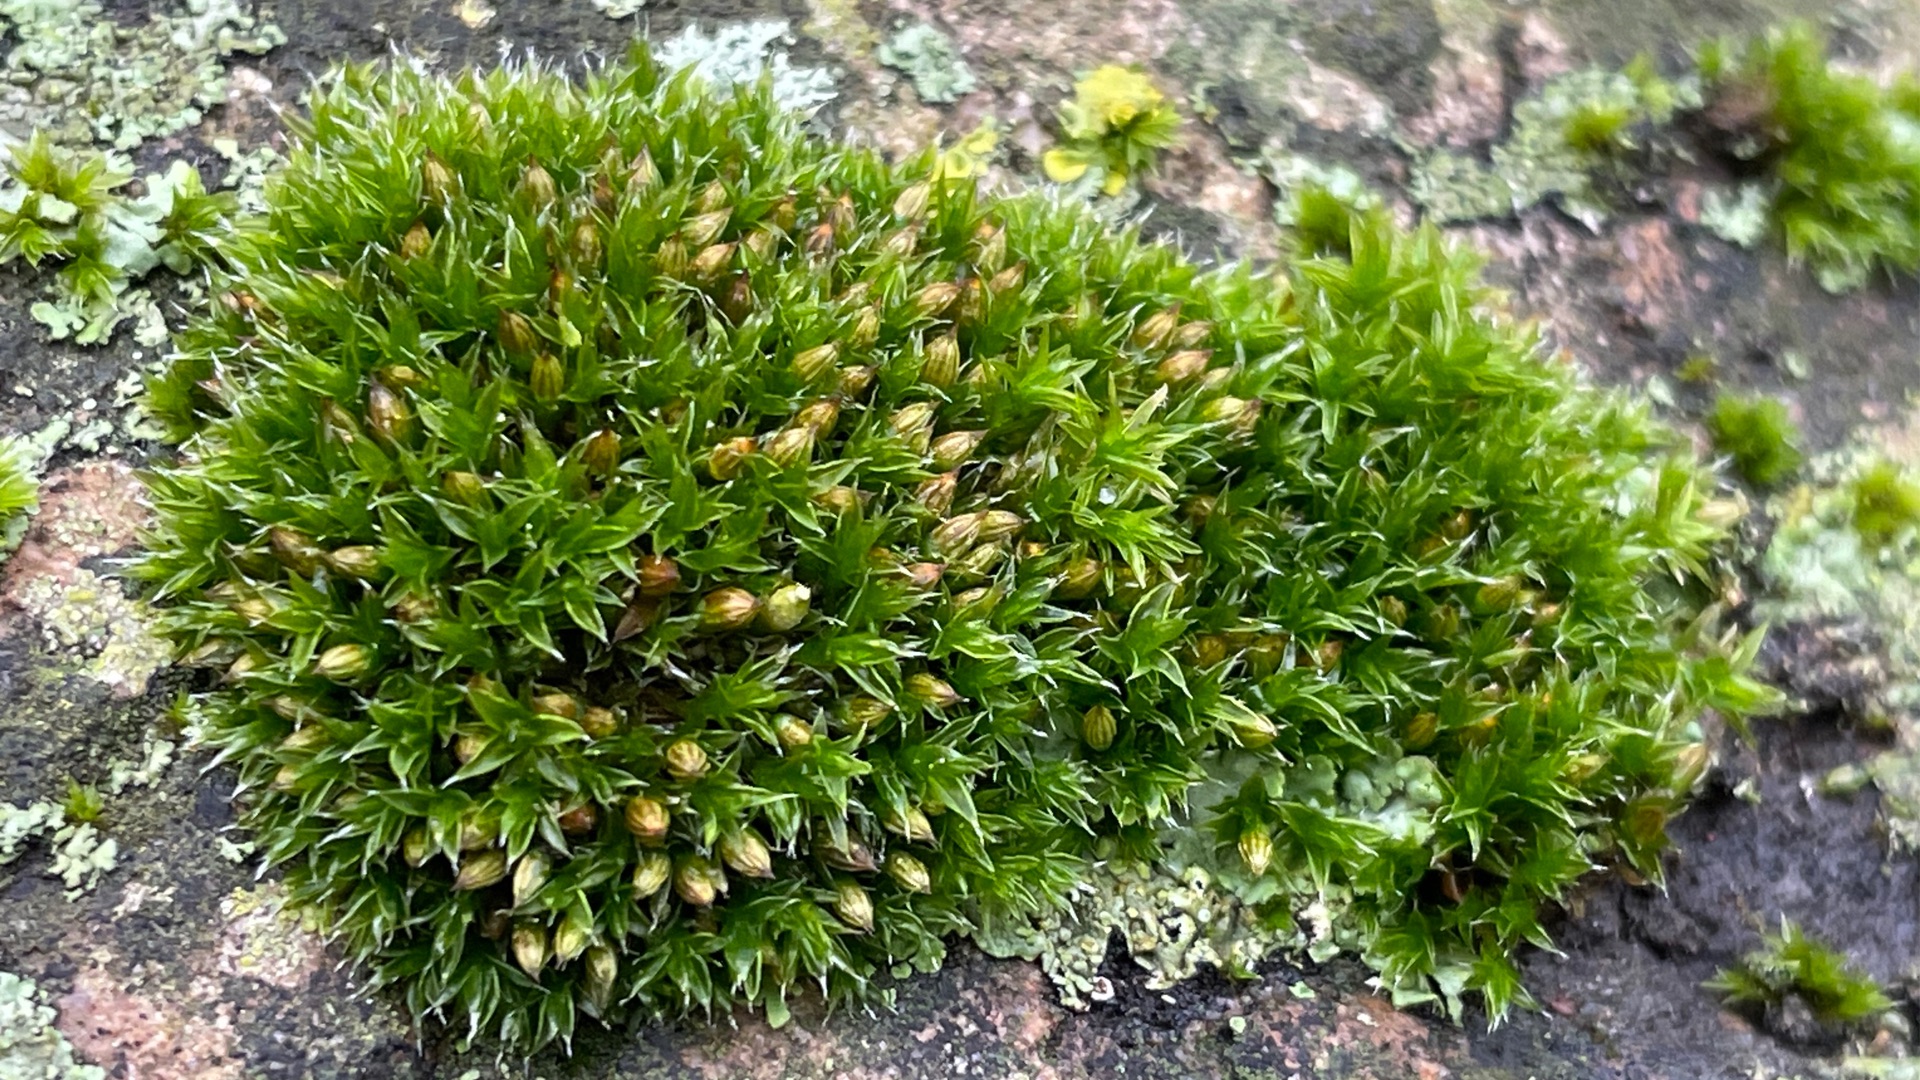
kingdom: Plantae
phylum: Bryophyta
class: Bryopsida
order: Orthotrichales
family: Orthotrichaceae
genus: Orthotrichum
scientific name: Orthotrichum diaphanum
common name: Hårspidset furehætte
